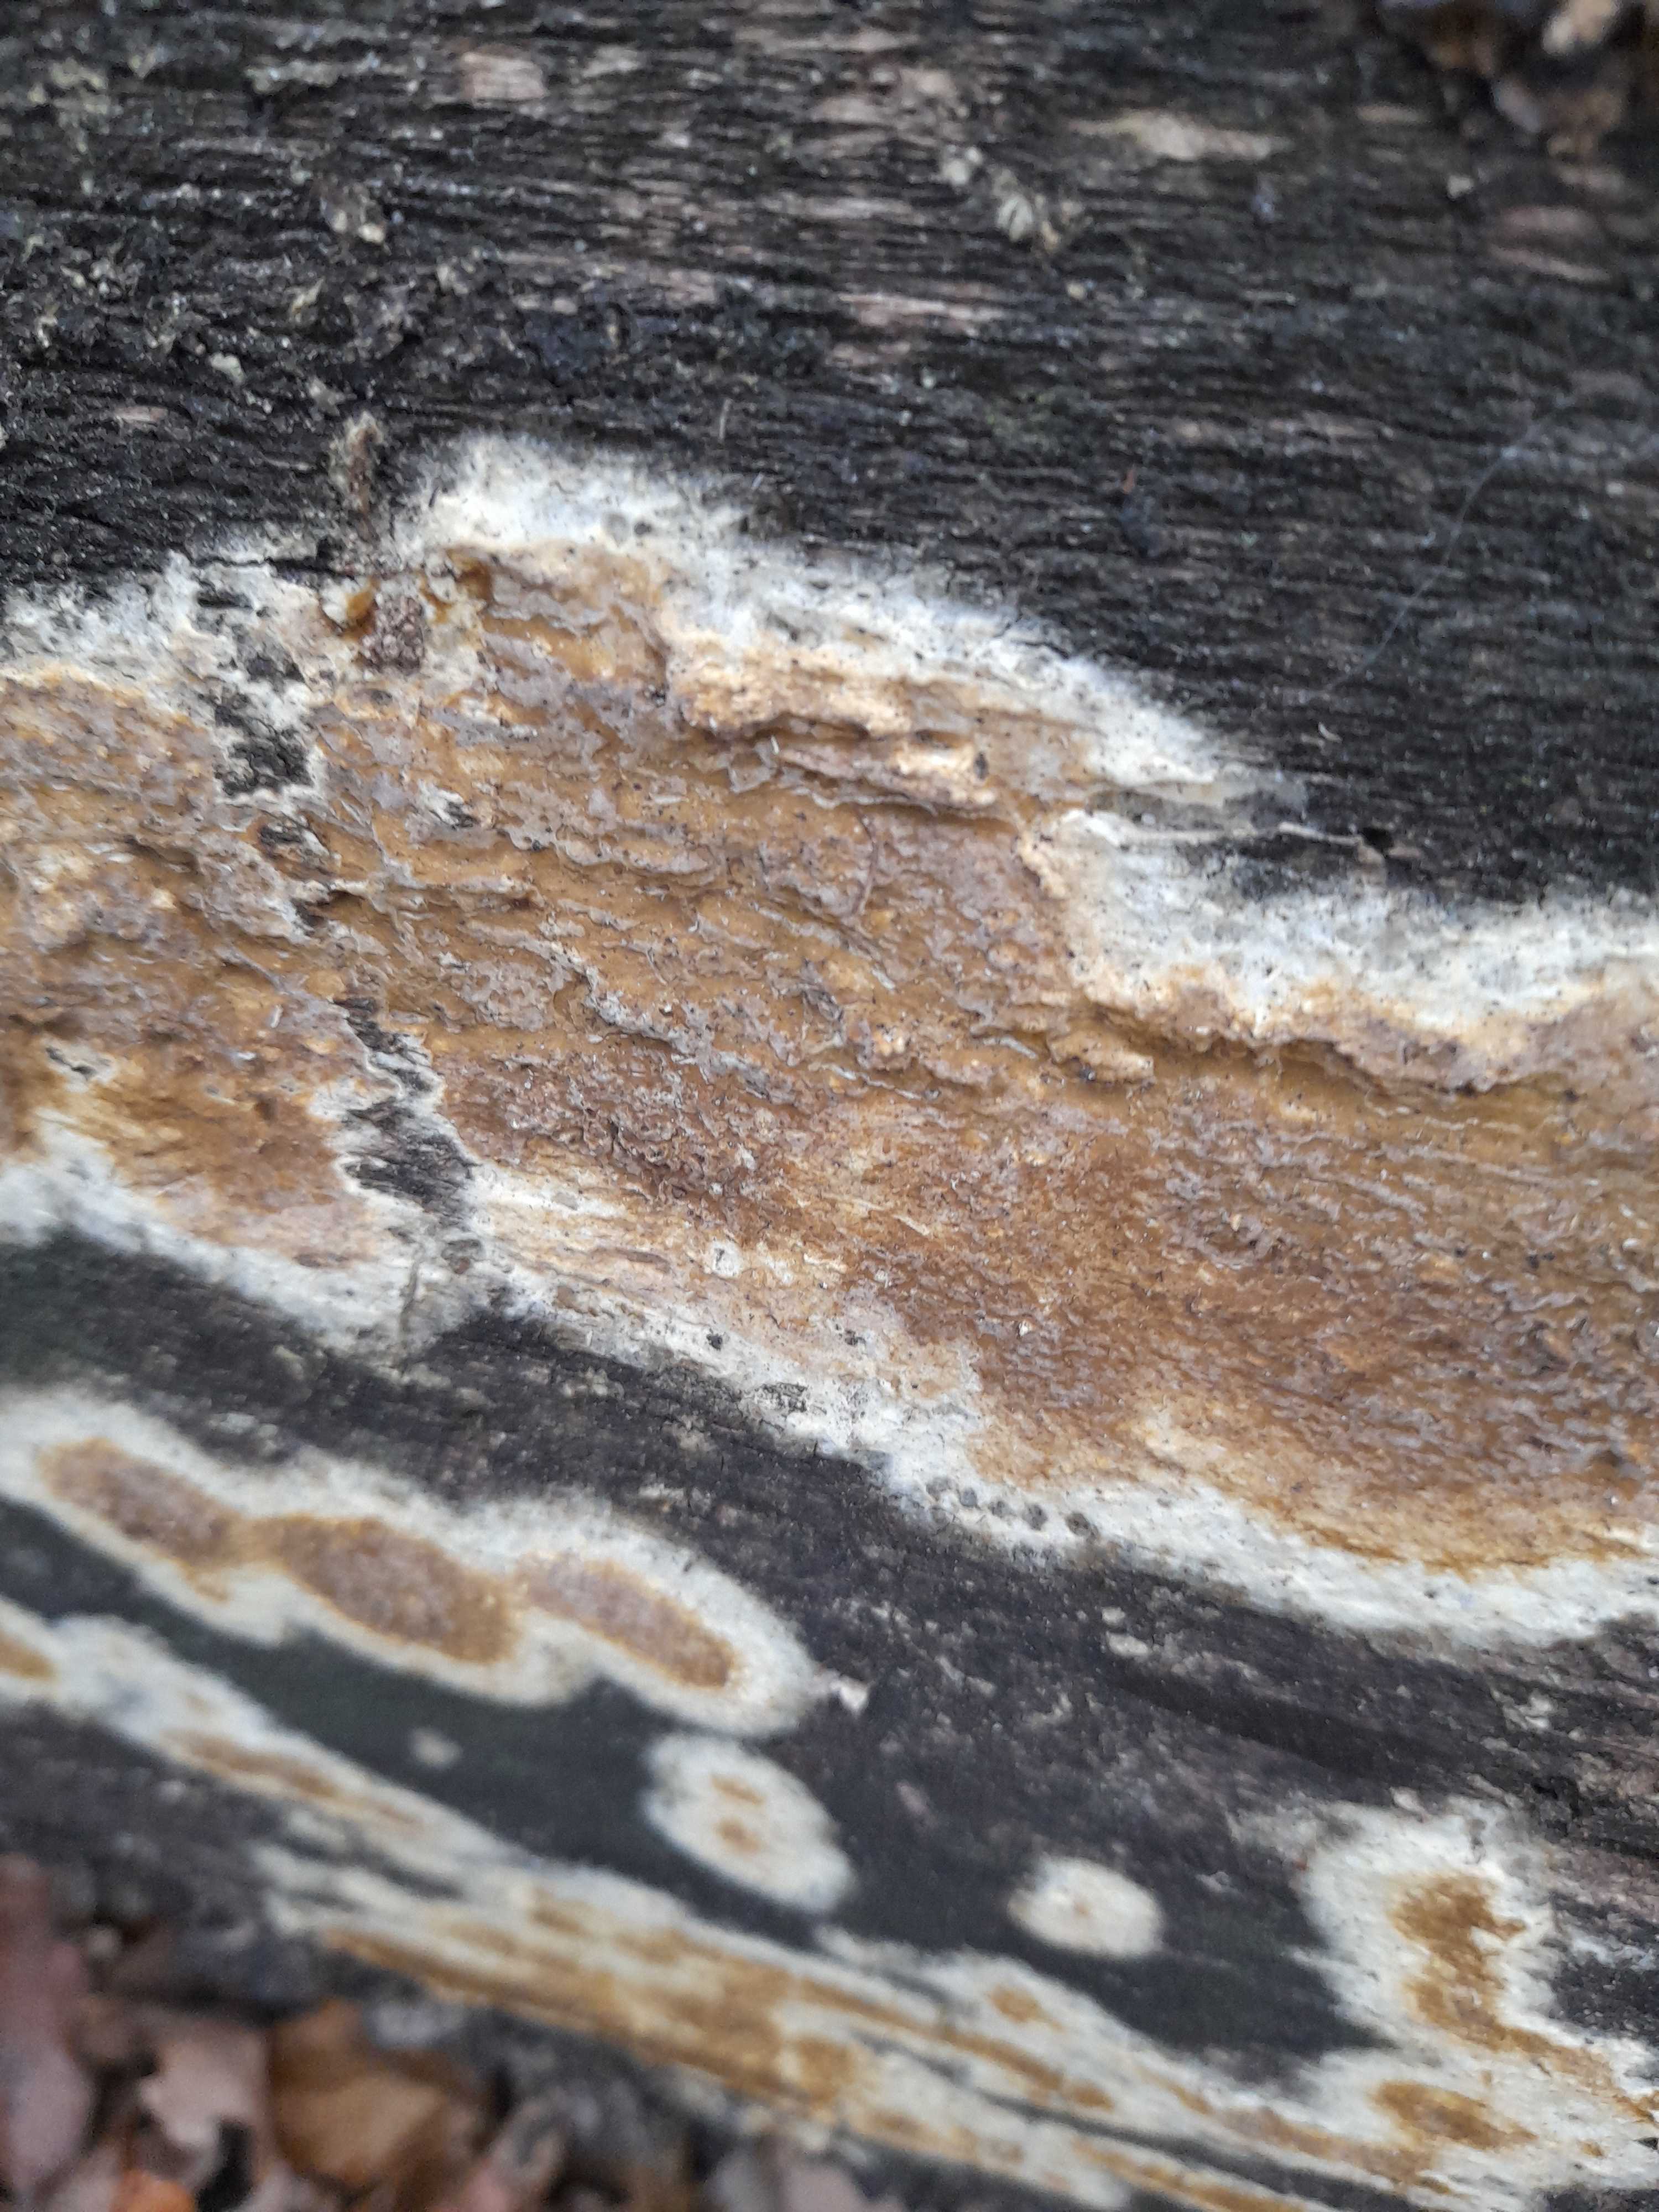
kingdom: Fungi
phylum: Basidiomycota
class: Agaricomycetes
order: Boletales
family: Coniophoraceae
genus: Coniophora
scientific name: Coniophora puteana
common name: gul tømmersvamp
